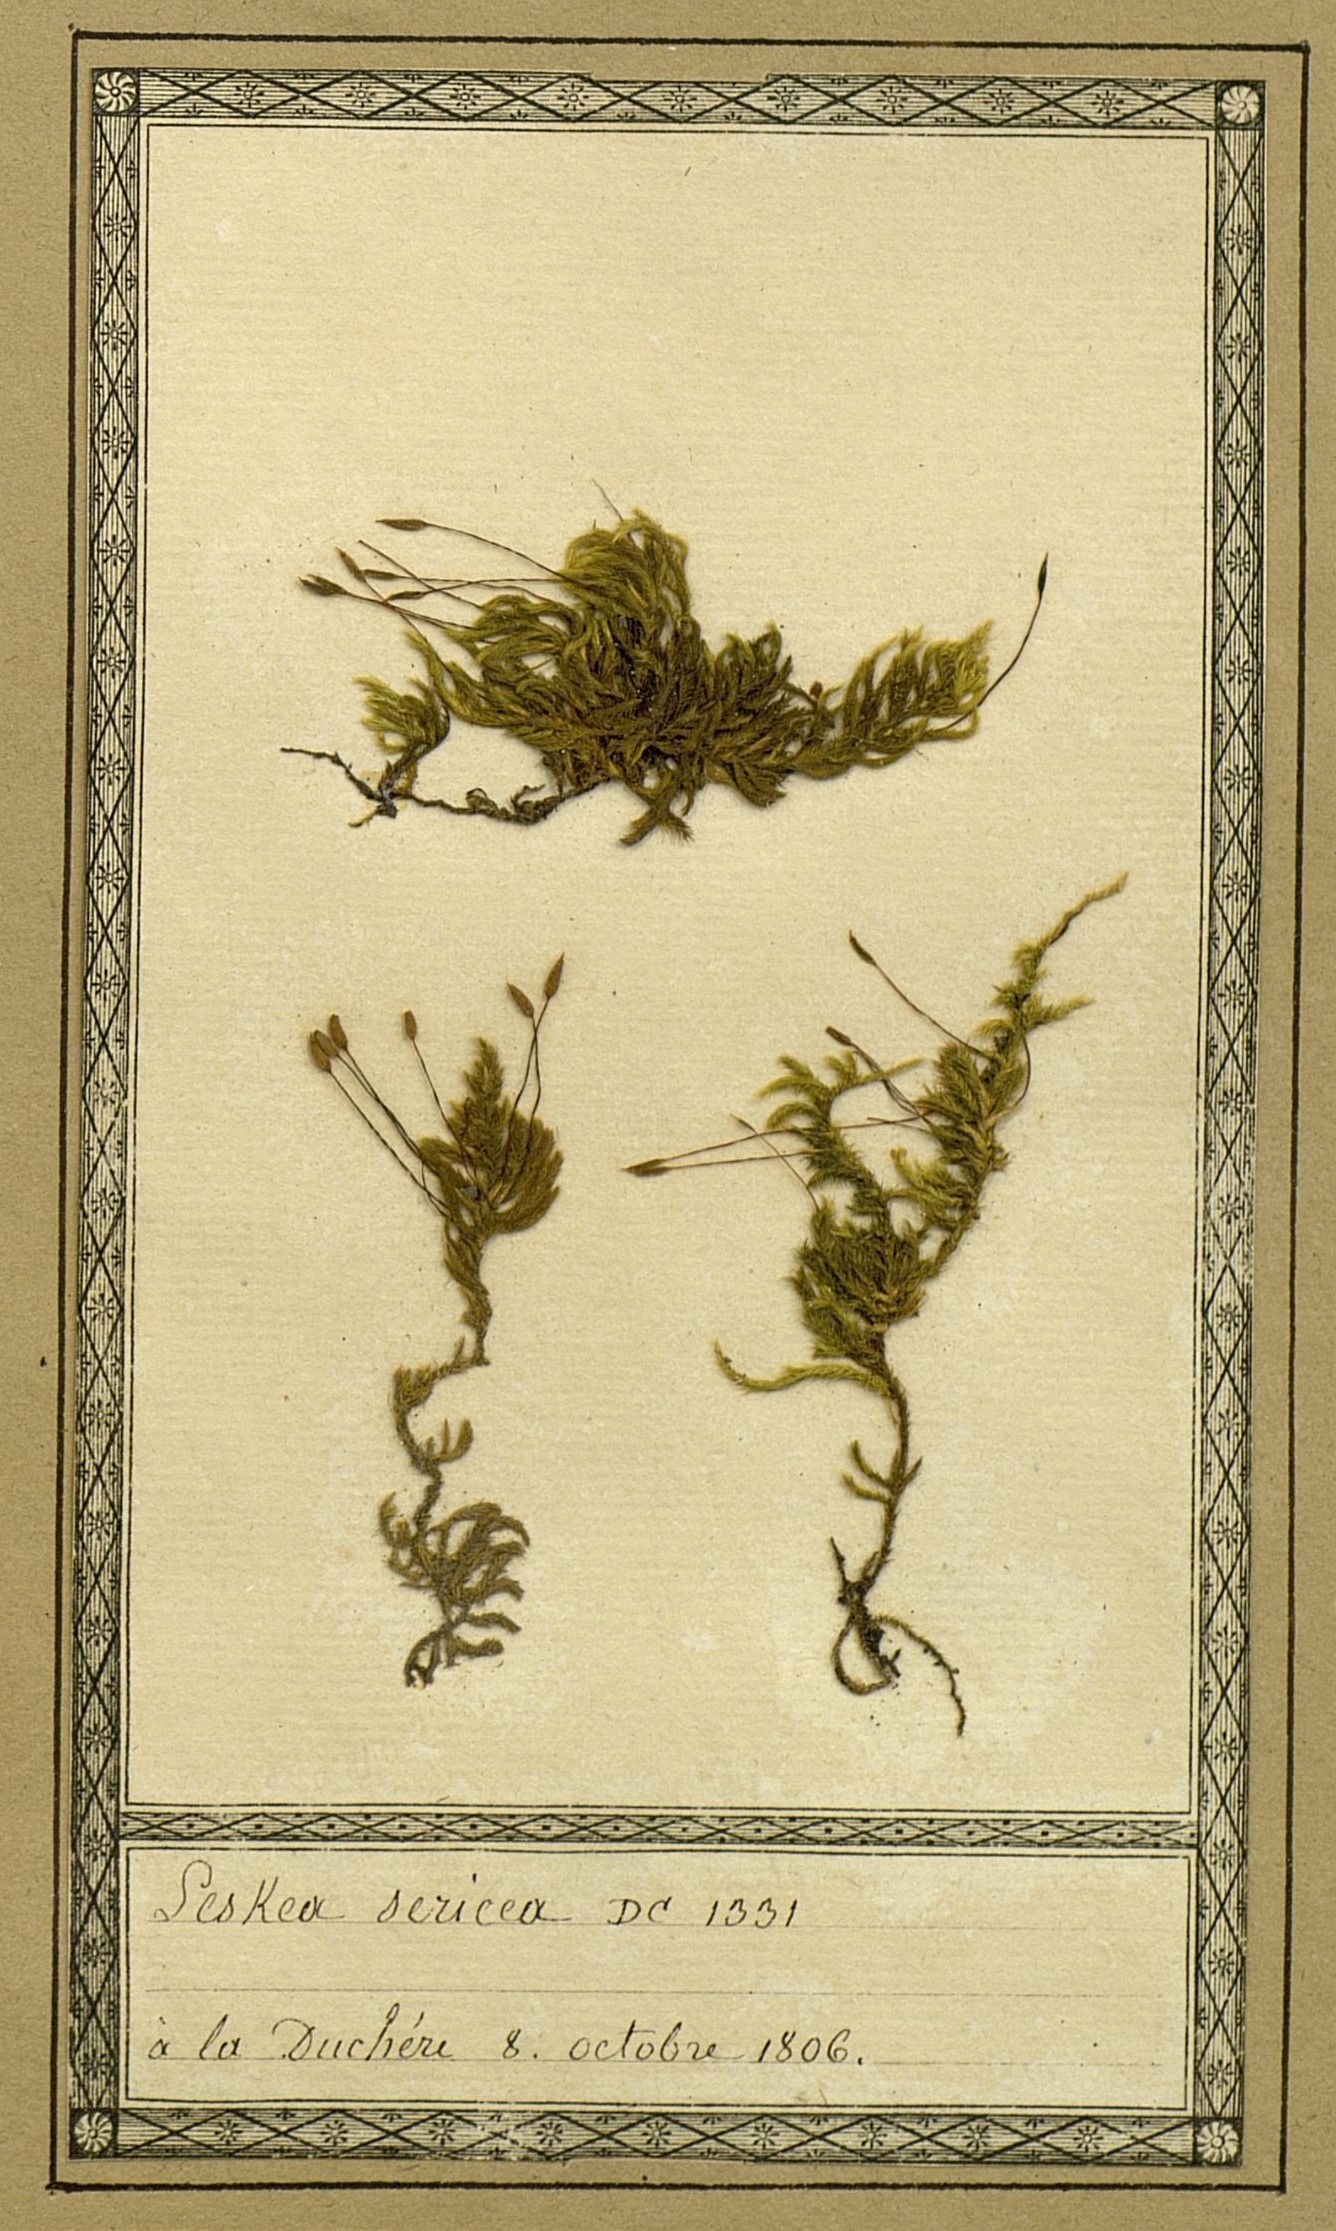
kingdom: Plantae
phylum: Bryophyta
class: Bryopsida
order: Hypnales
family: Brachytheciaceae
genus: Homalothecium
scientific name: Homalothecium sericeum
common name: Silky wall feather-moss
